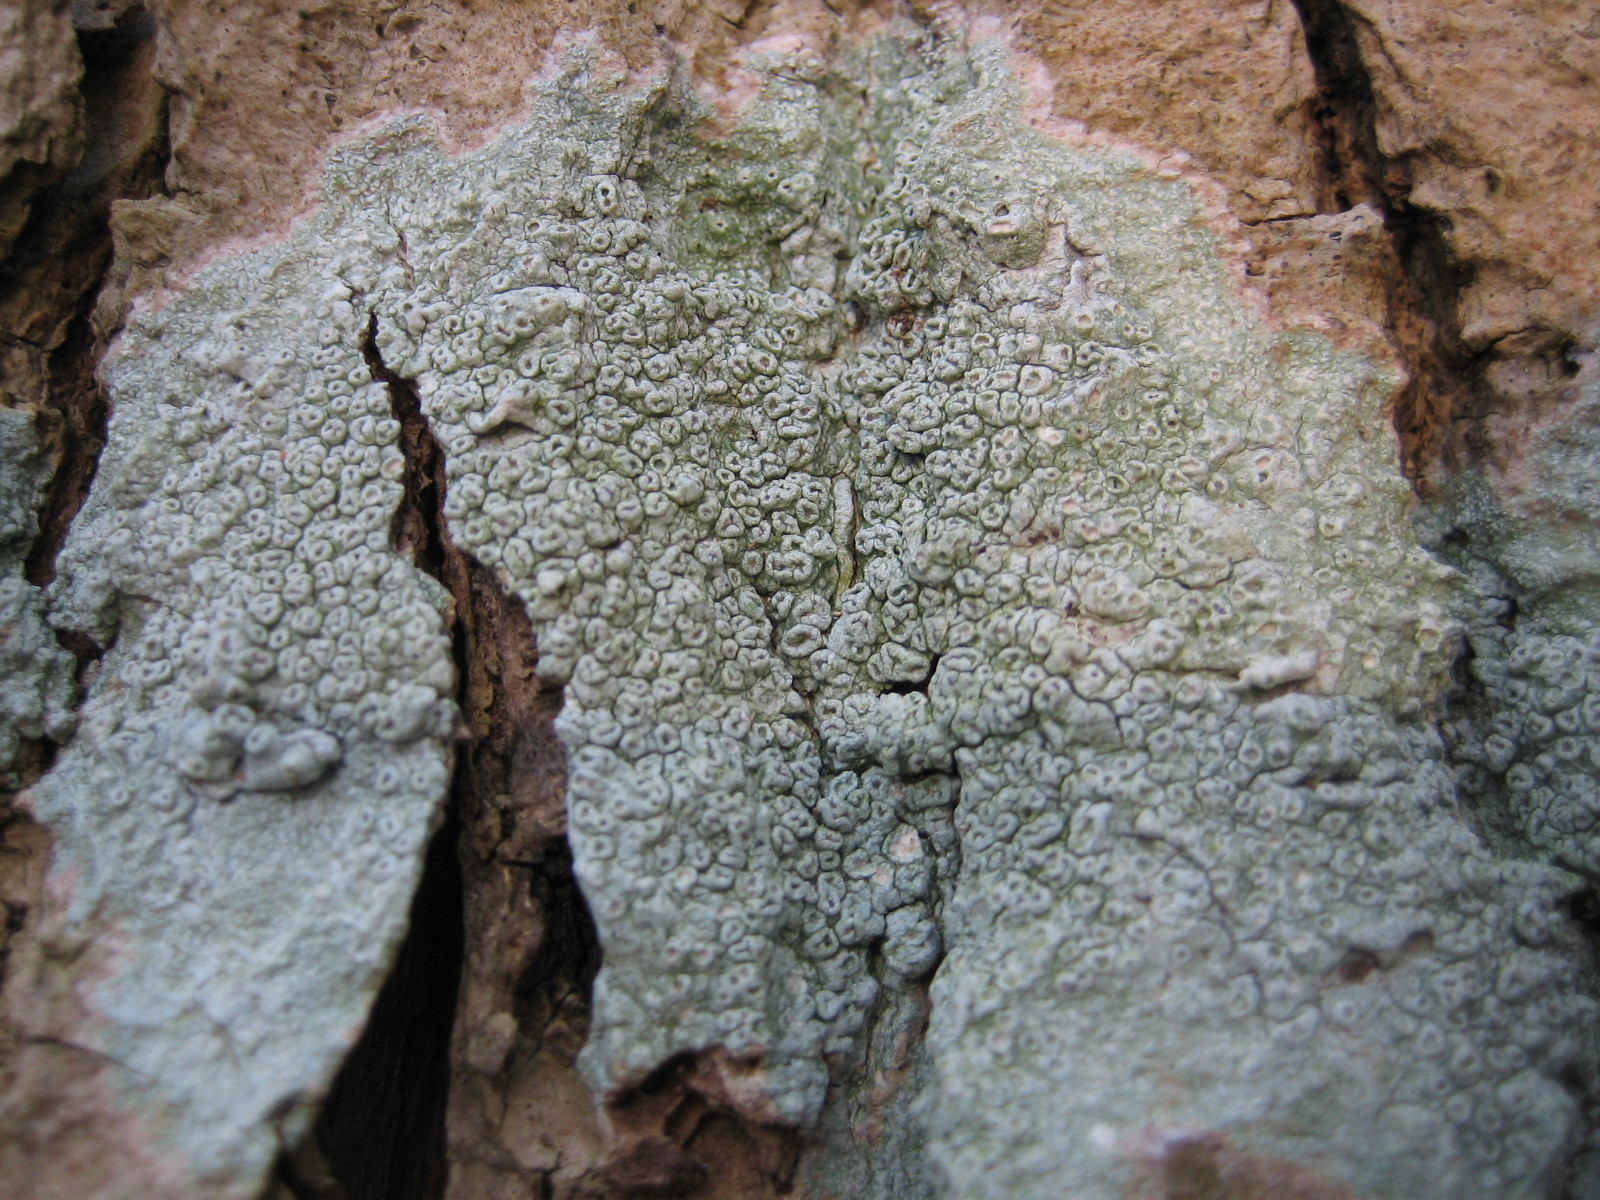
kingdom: Fungi
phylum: Ascomycota
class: Lecanoromycetes
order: Pertusariales
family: Pertusariaceae
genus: Pertusaria
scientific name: Pertusaria hymenea
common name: åben prikvortelav
